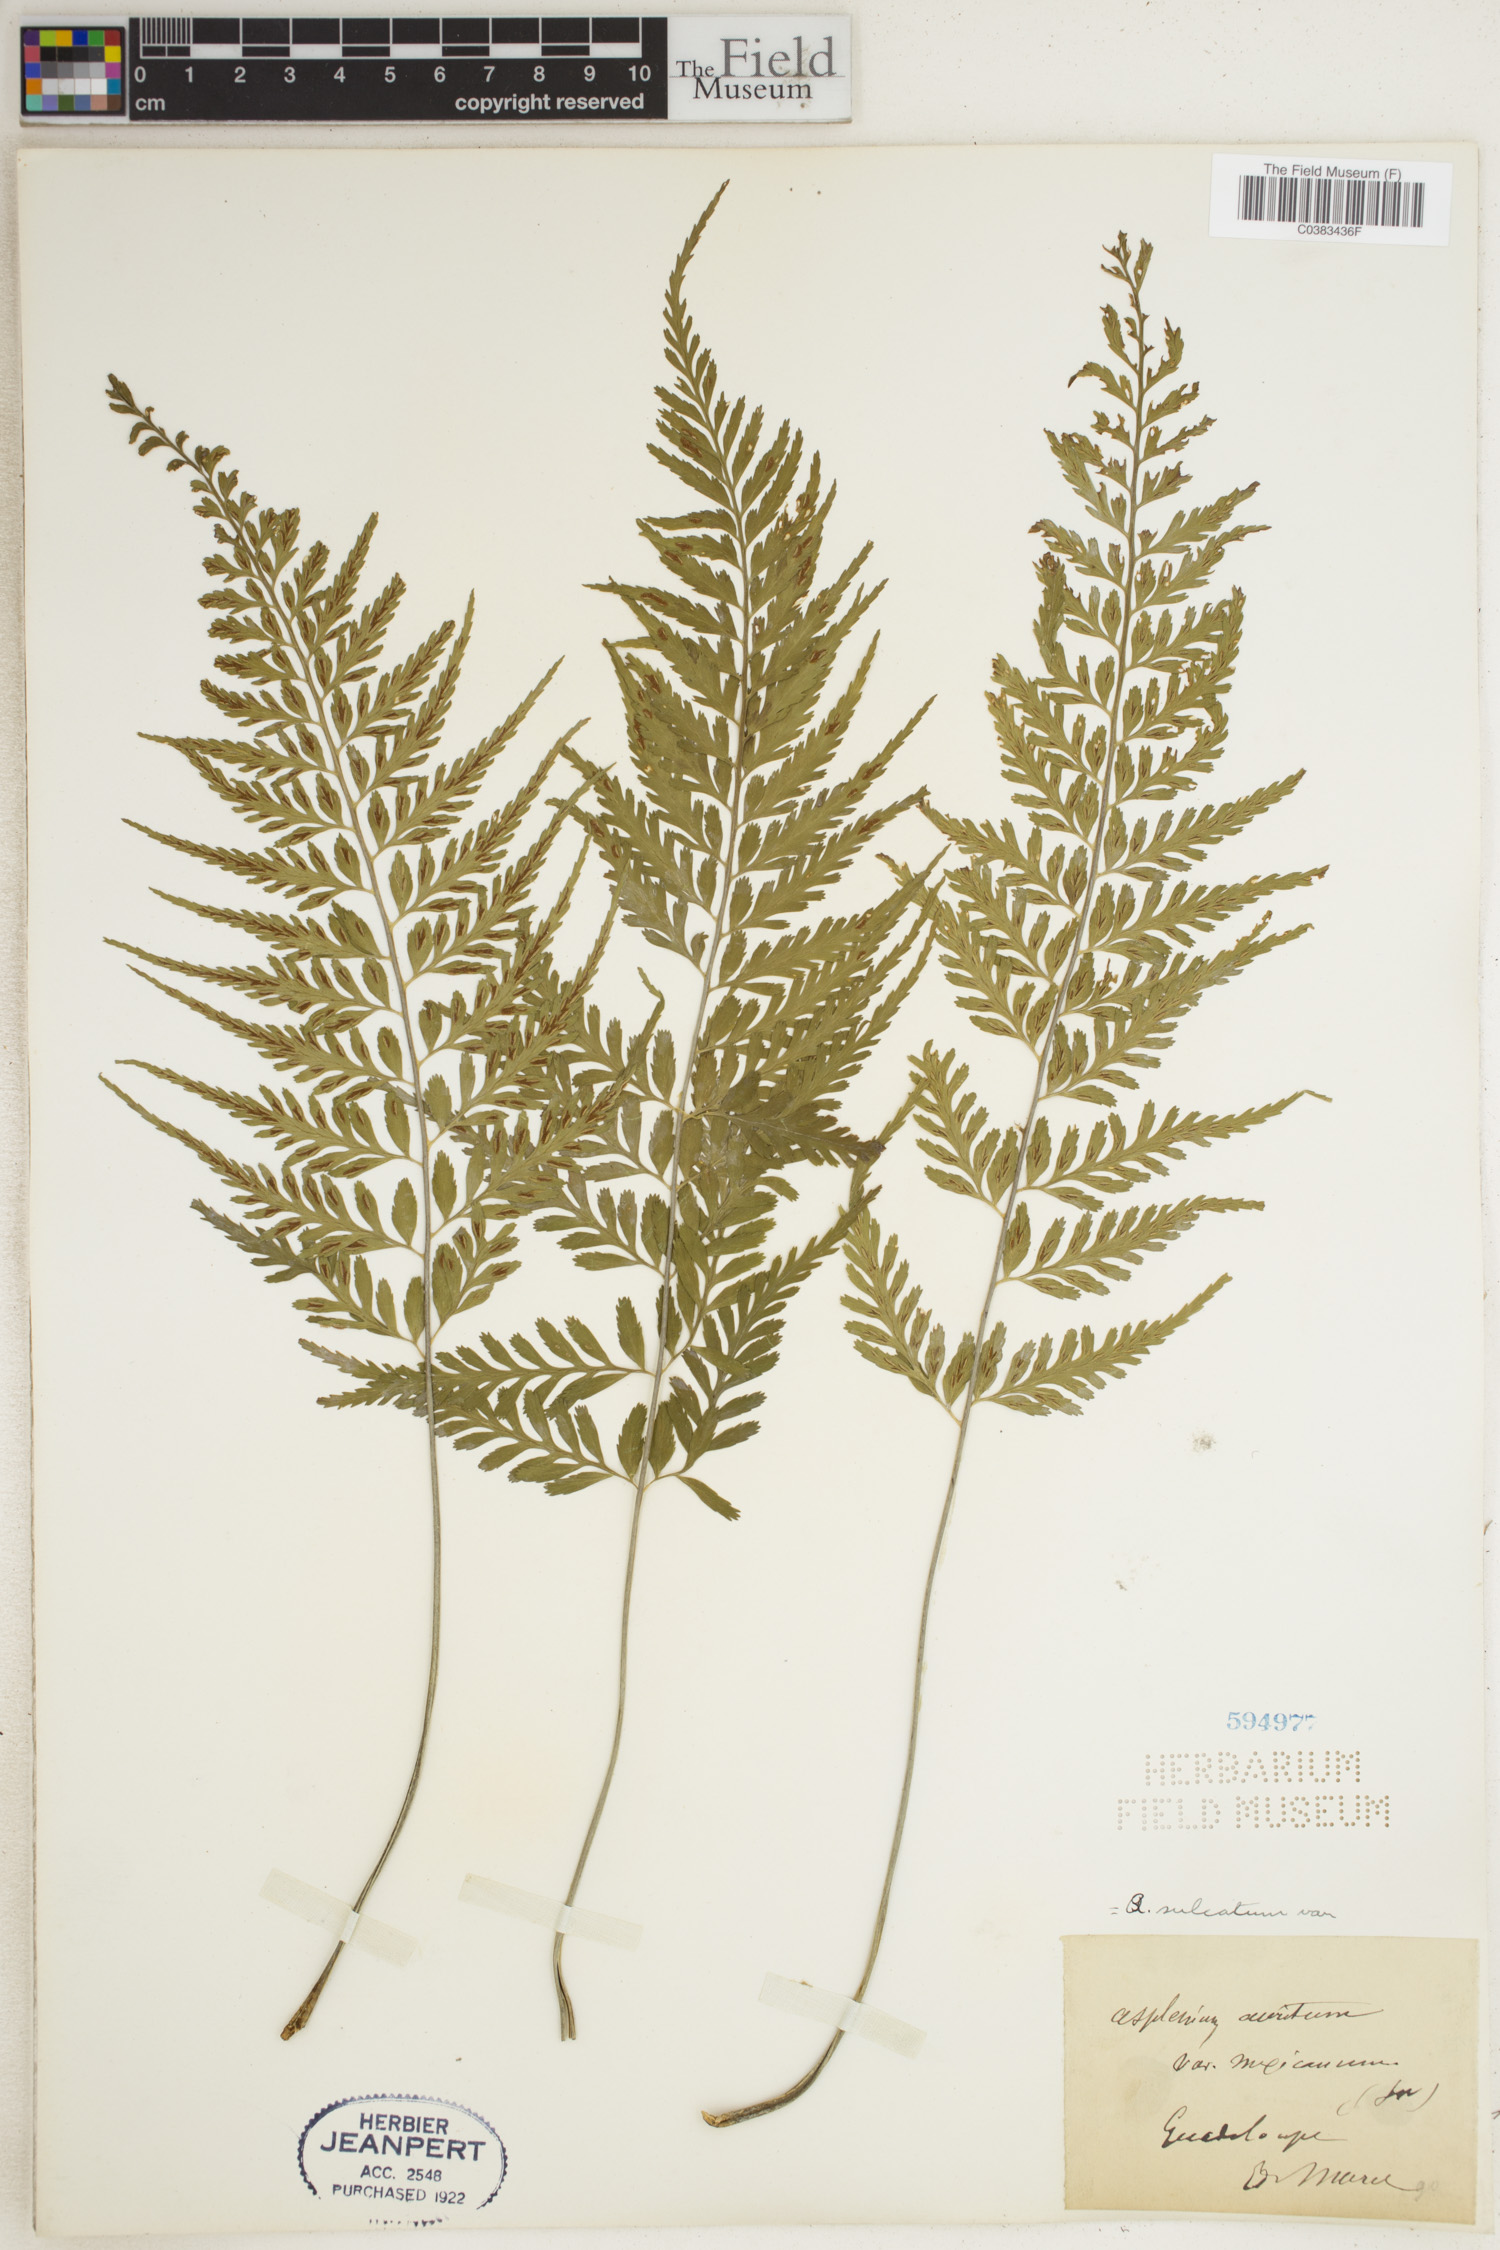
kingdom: Plantae
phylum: Tracheophyta
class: Polypodiopsida
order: Polypodiales
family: Aspleniaceae
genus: Asplenium
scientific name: Asplenium sulcatum
